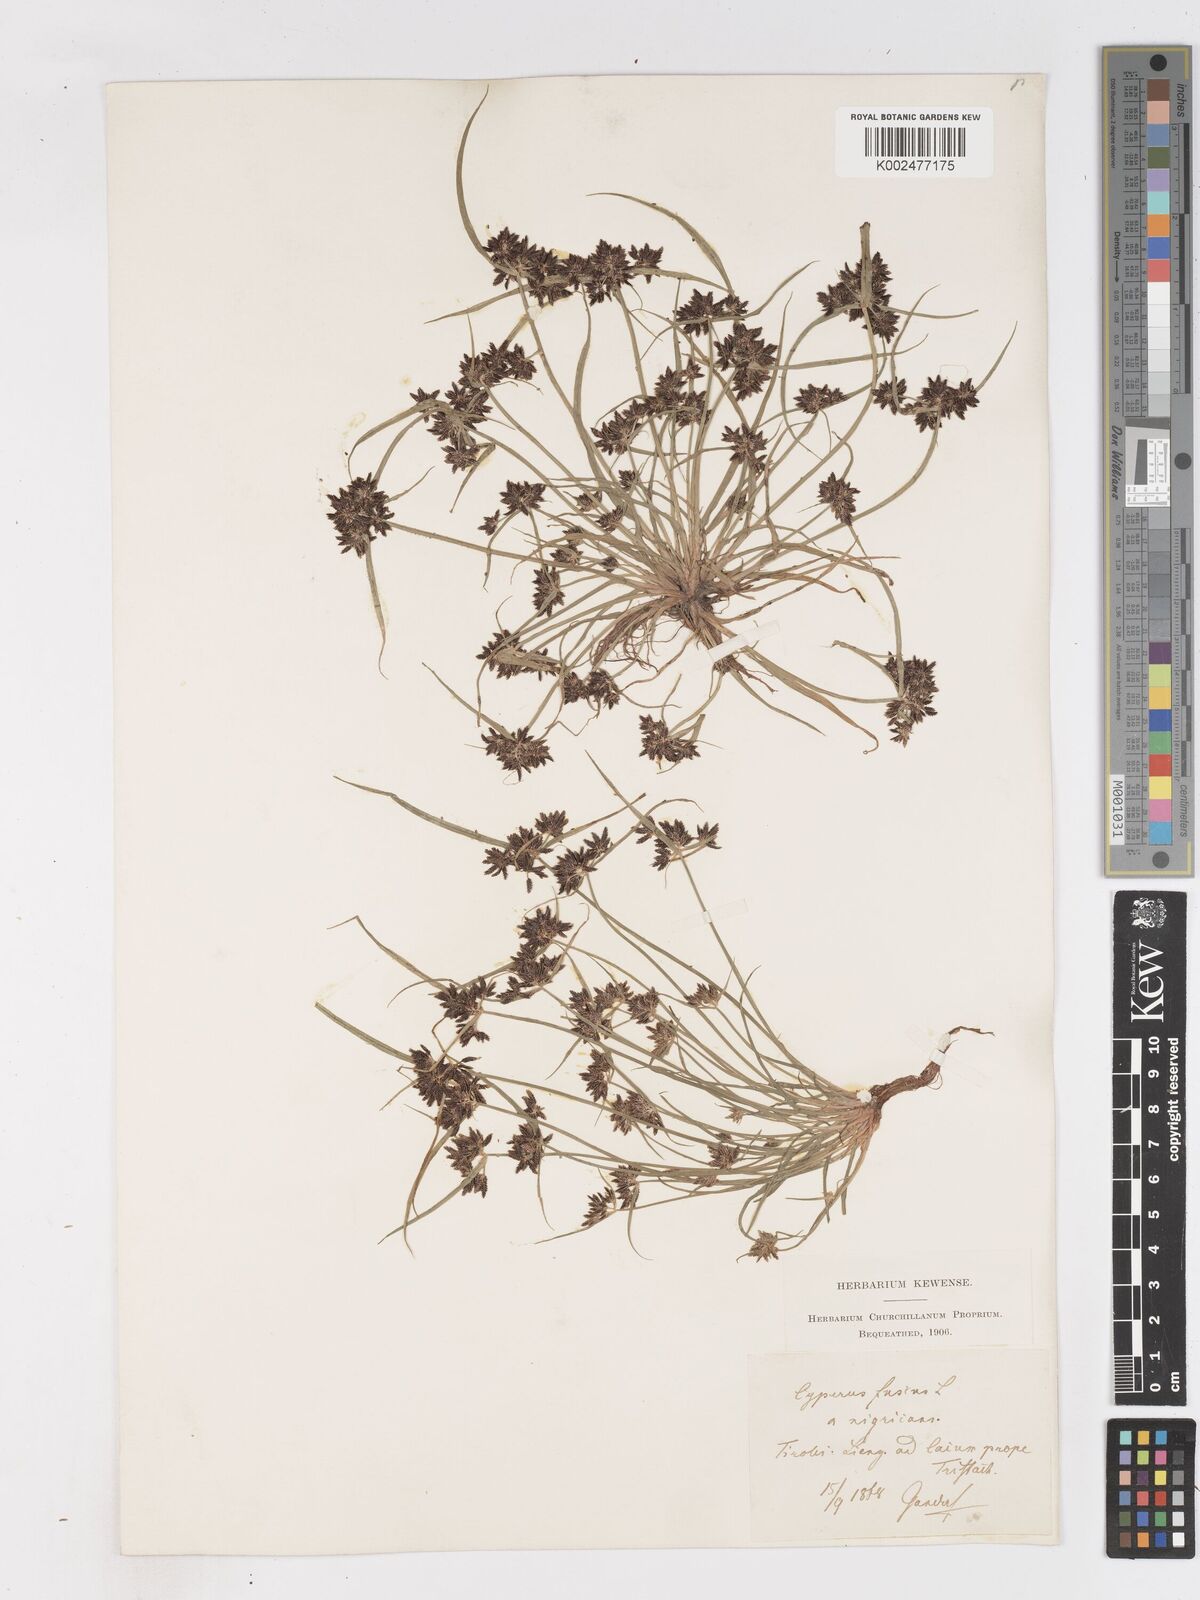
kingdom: Plantae
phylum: Tracheophyta
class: Liliopsida
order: Poales
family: Cyperaceae
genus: Cyperus
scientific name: Cyperus fuscus
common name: Brown galingale
